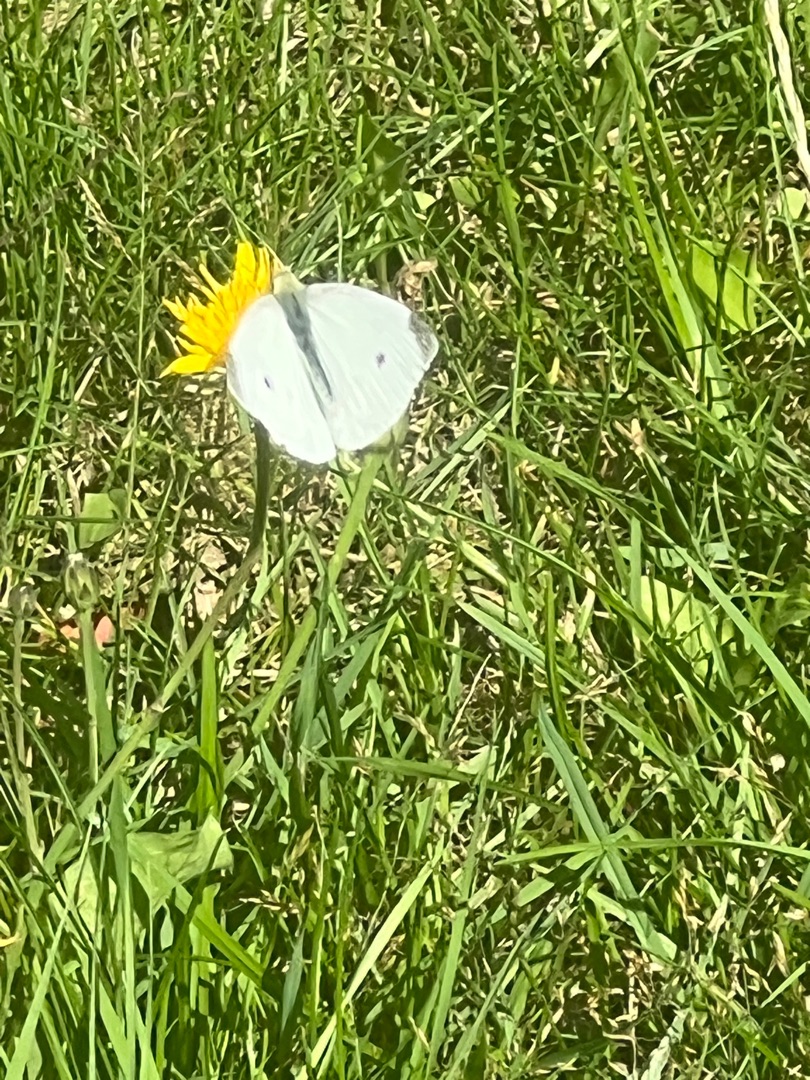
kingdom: Animalia
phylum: Arthropoda
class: Insecta
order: Lepidoptera
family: Pieridae
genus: Pieris
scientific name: Pieris rapae
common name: Lille kålsommerfugl
